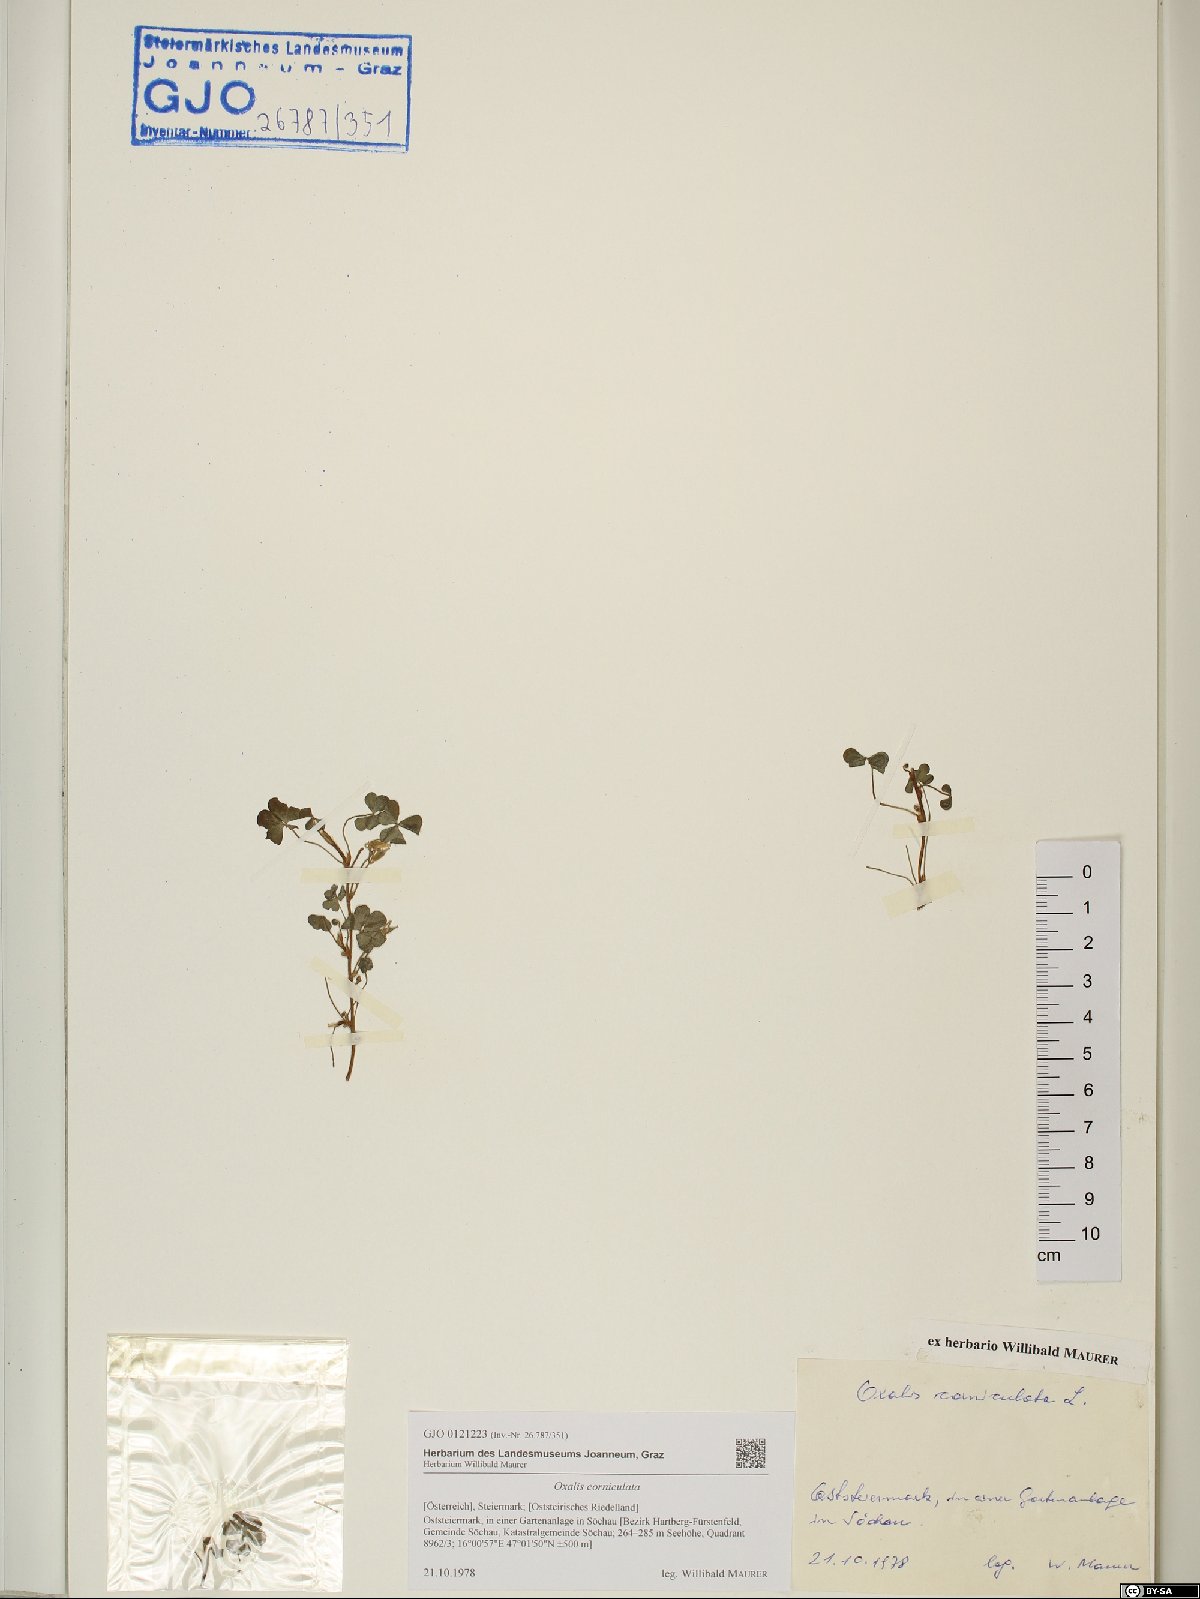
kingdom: Plantae
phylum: Tracheophyta
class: Magnoliopsida
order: Oxalidales
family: Oxalidaceae
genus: Oxalis
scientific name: Oxalis corniculata
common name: Procumbent yellow-sorrel
